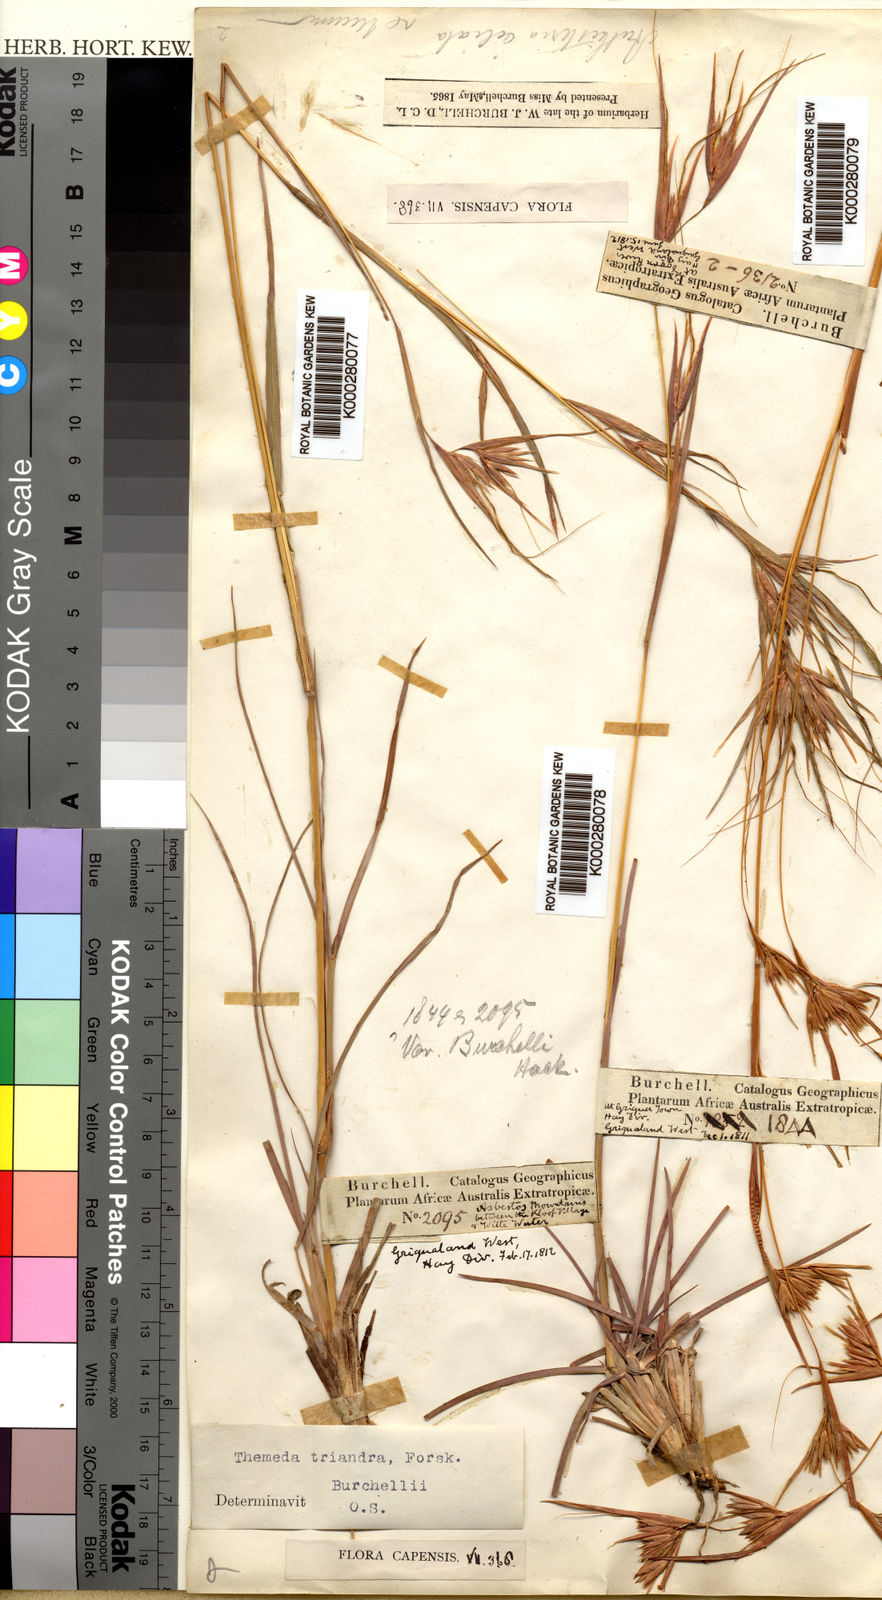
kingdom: Plantae
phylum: Tracheophyta
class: Liliopsida
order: Poales
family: Poaceae
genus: Themeda
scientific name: Themeda triandra
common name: Kangaroo grass
